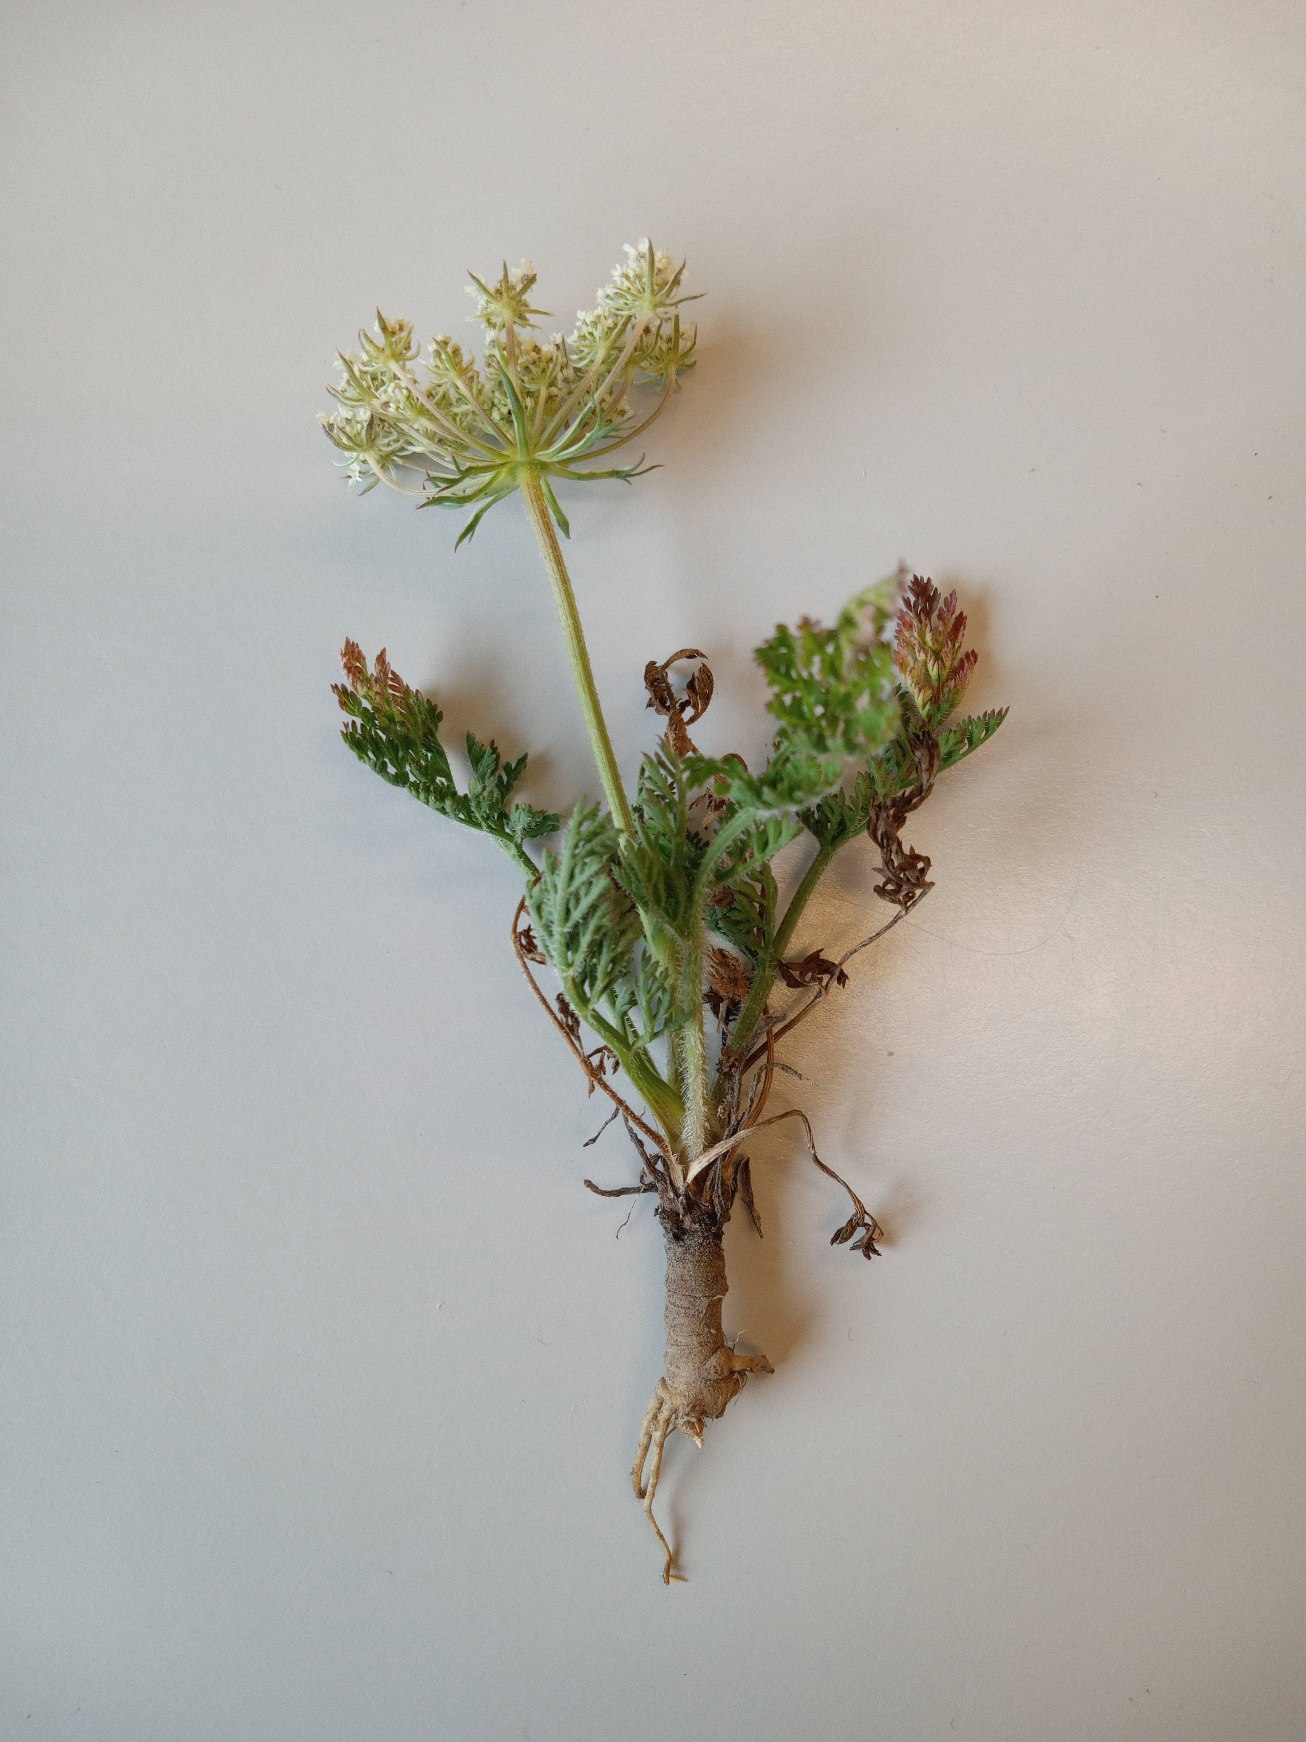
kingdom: Plantae
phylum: Tracheophyta
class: Magnoliopsida
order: Apiales
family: Apiaceae
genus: Daucus
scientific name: Daucus carota
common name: Vild gulerod
